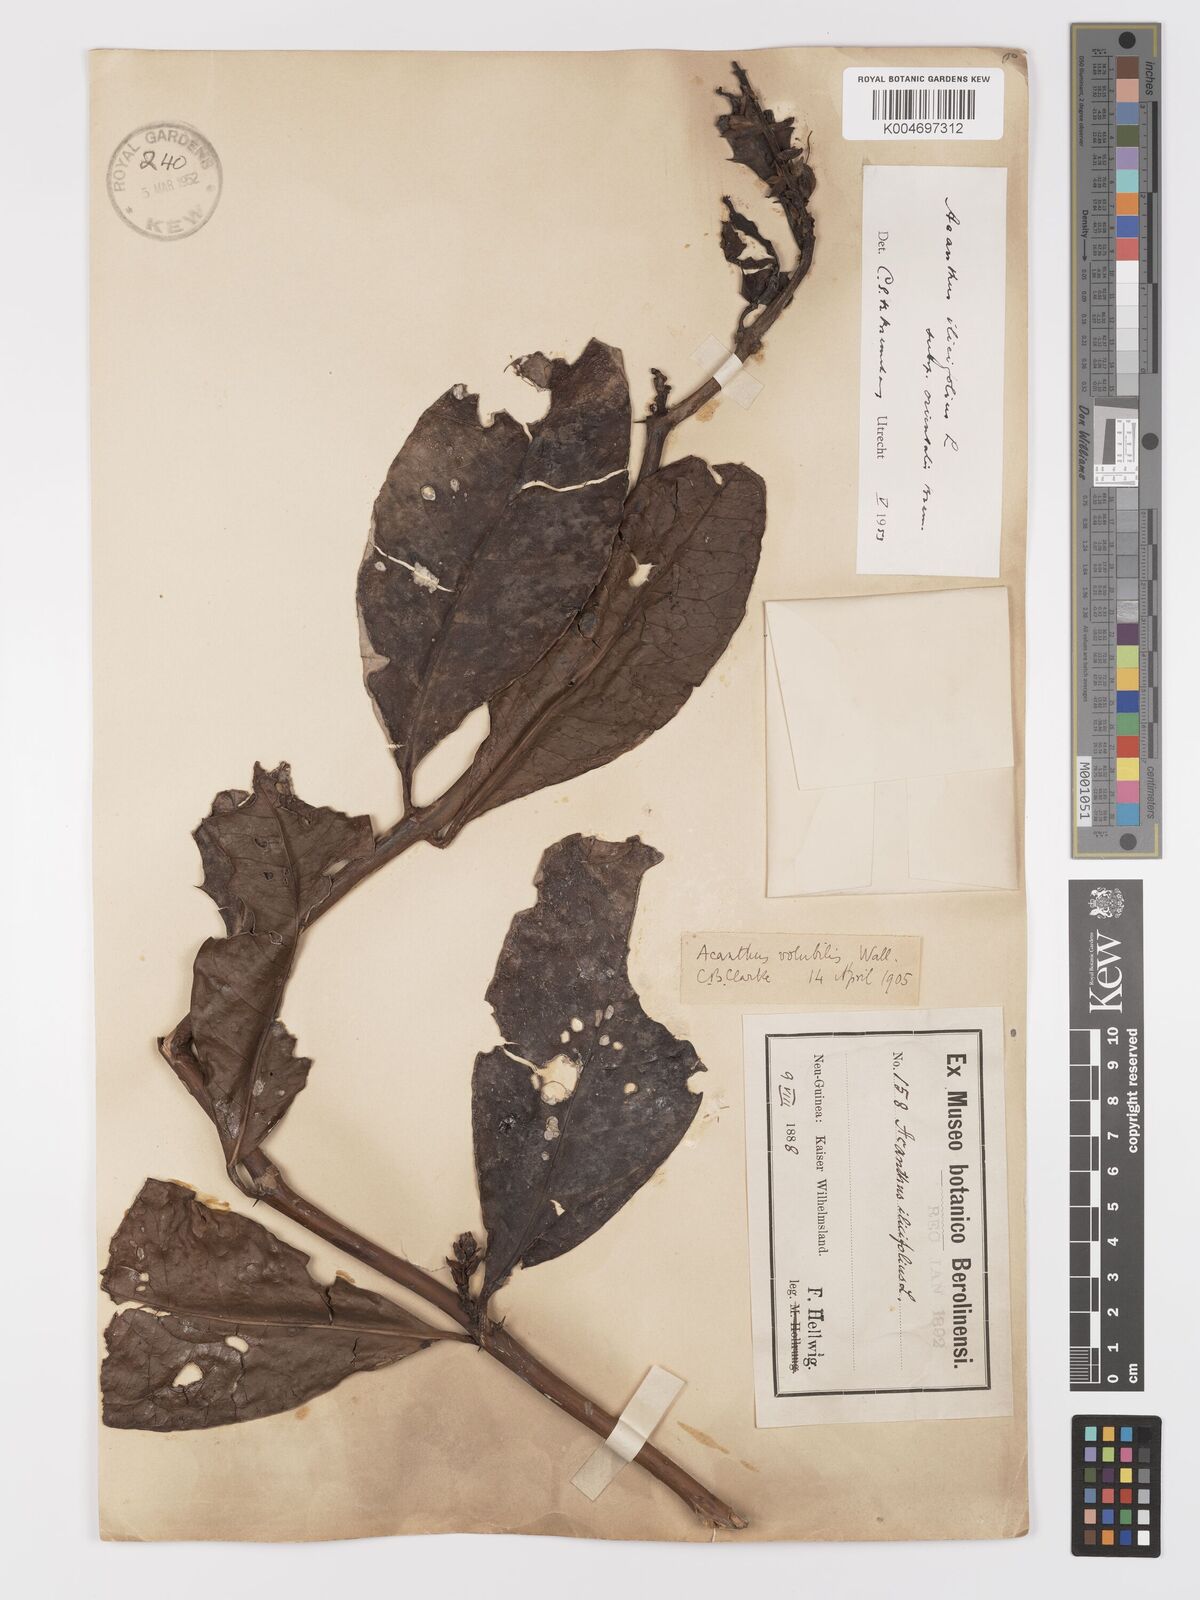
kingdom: Plantae
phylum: Tracheophyta
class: Magnoliopsida
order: Lamiales
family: Acanthaceae
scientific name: Acanthaceae
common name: Acanthaceae
